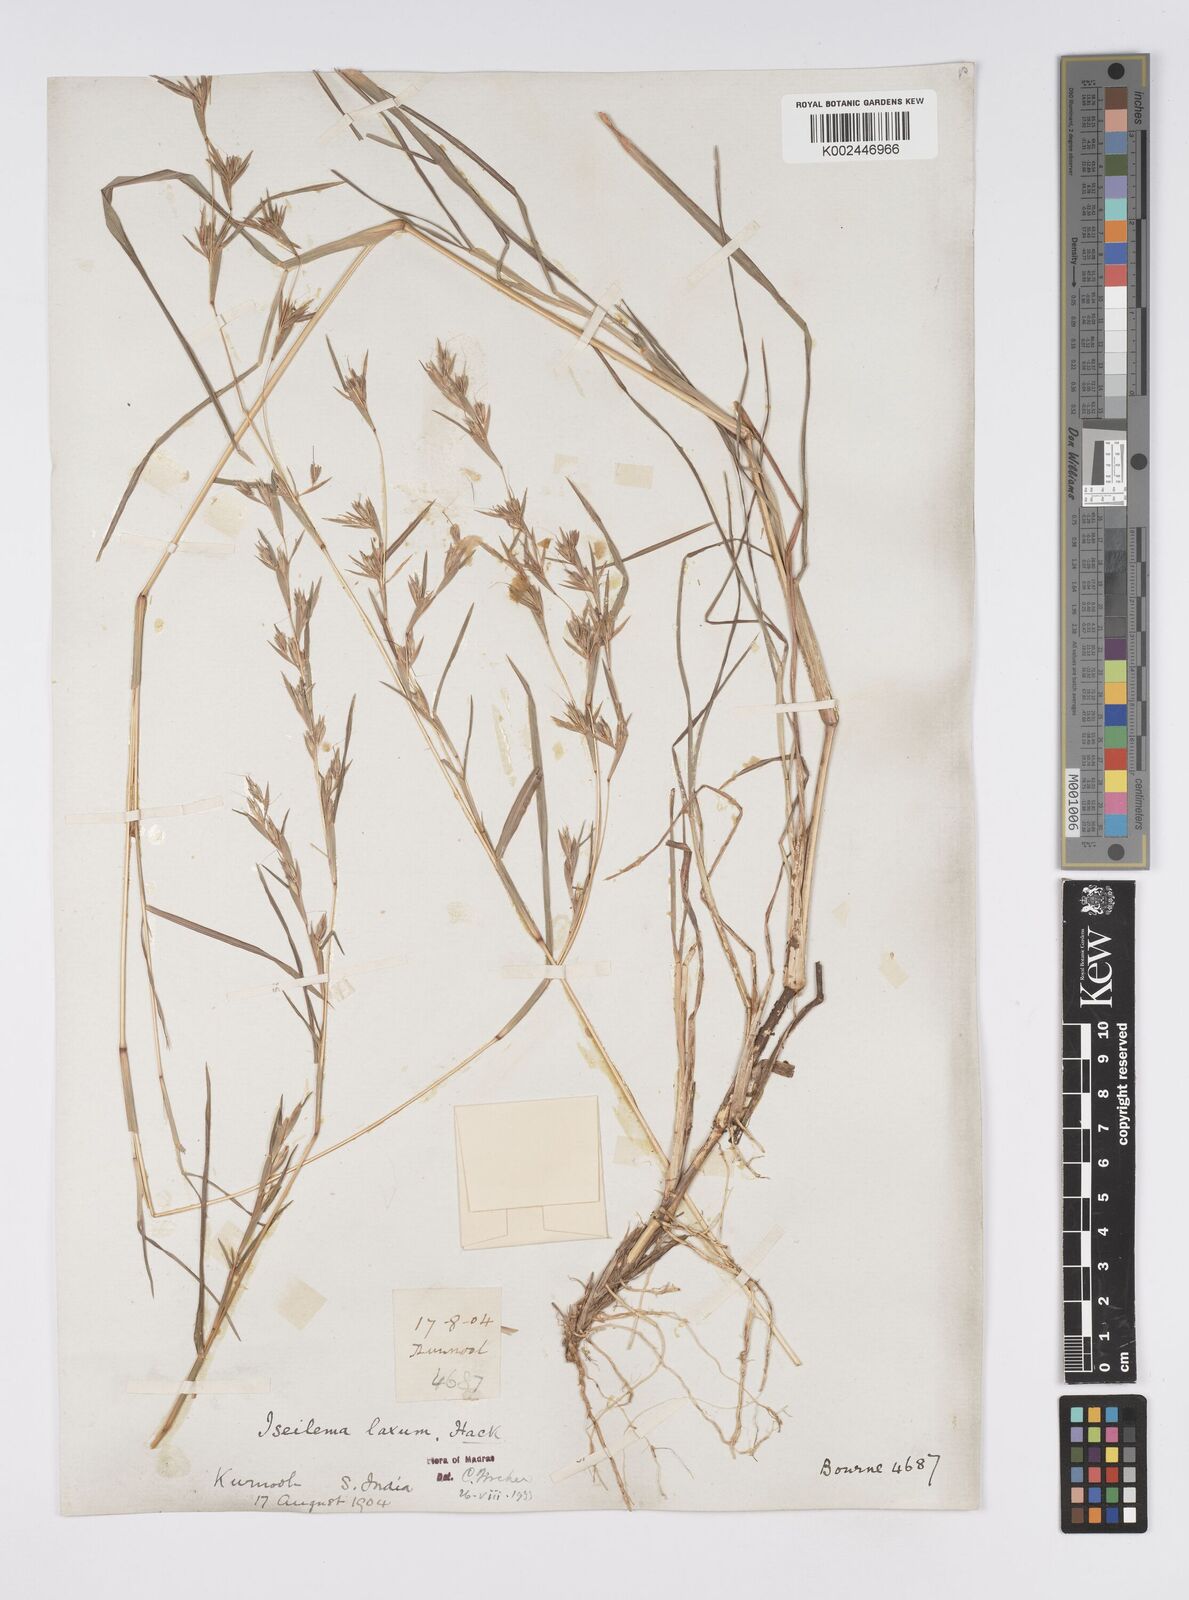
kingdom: Plantae
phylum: Tracheophyta
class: Liliopsida
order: Poales
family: Poaceae
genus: Iseilema
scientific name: Iseilema prostratum
